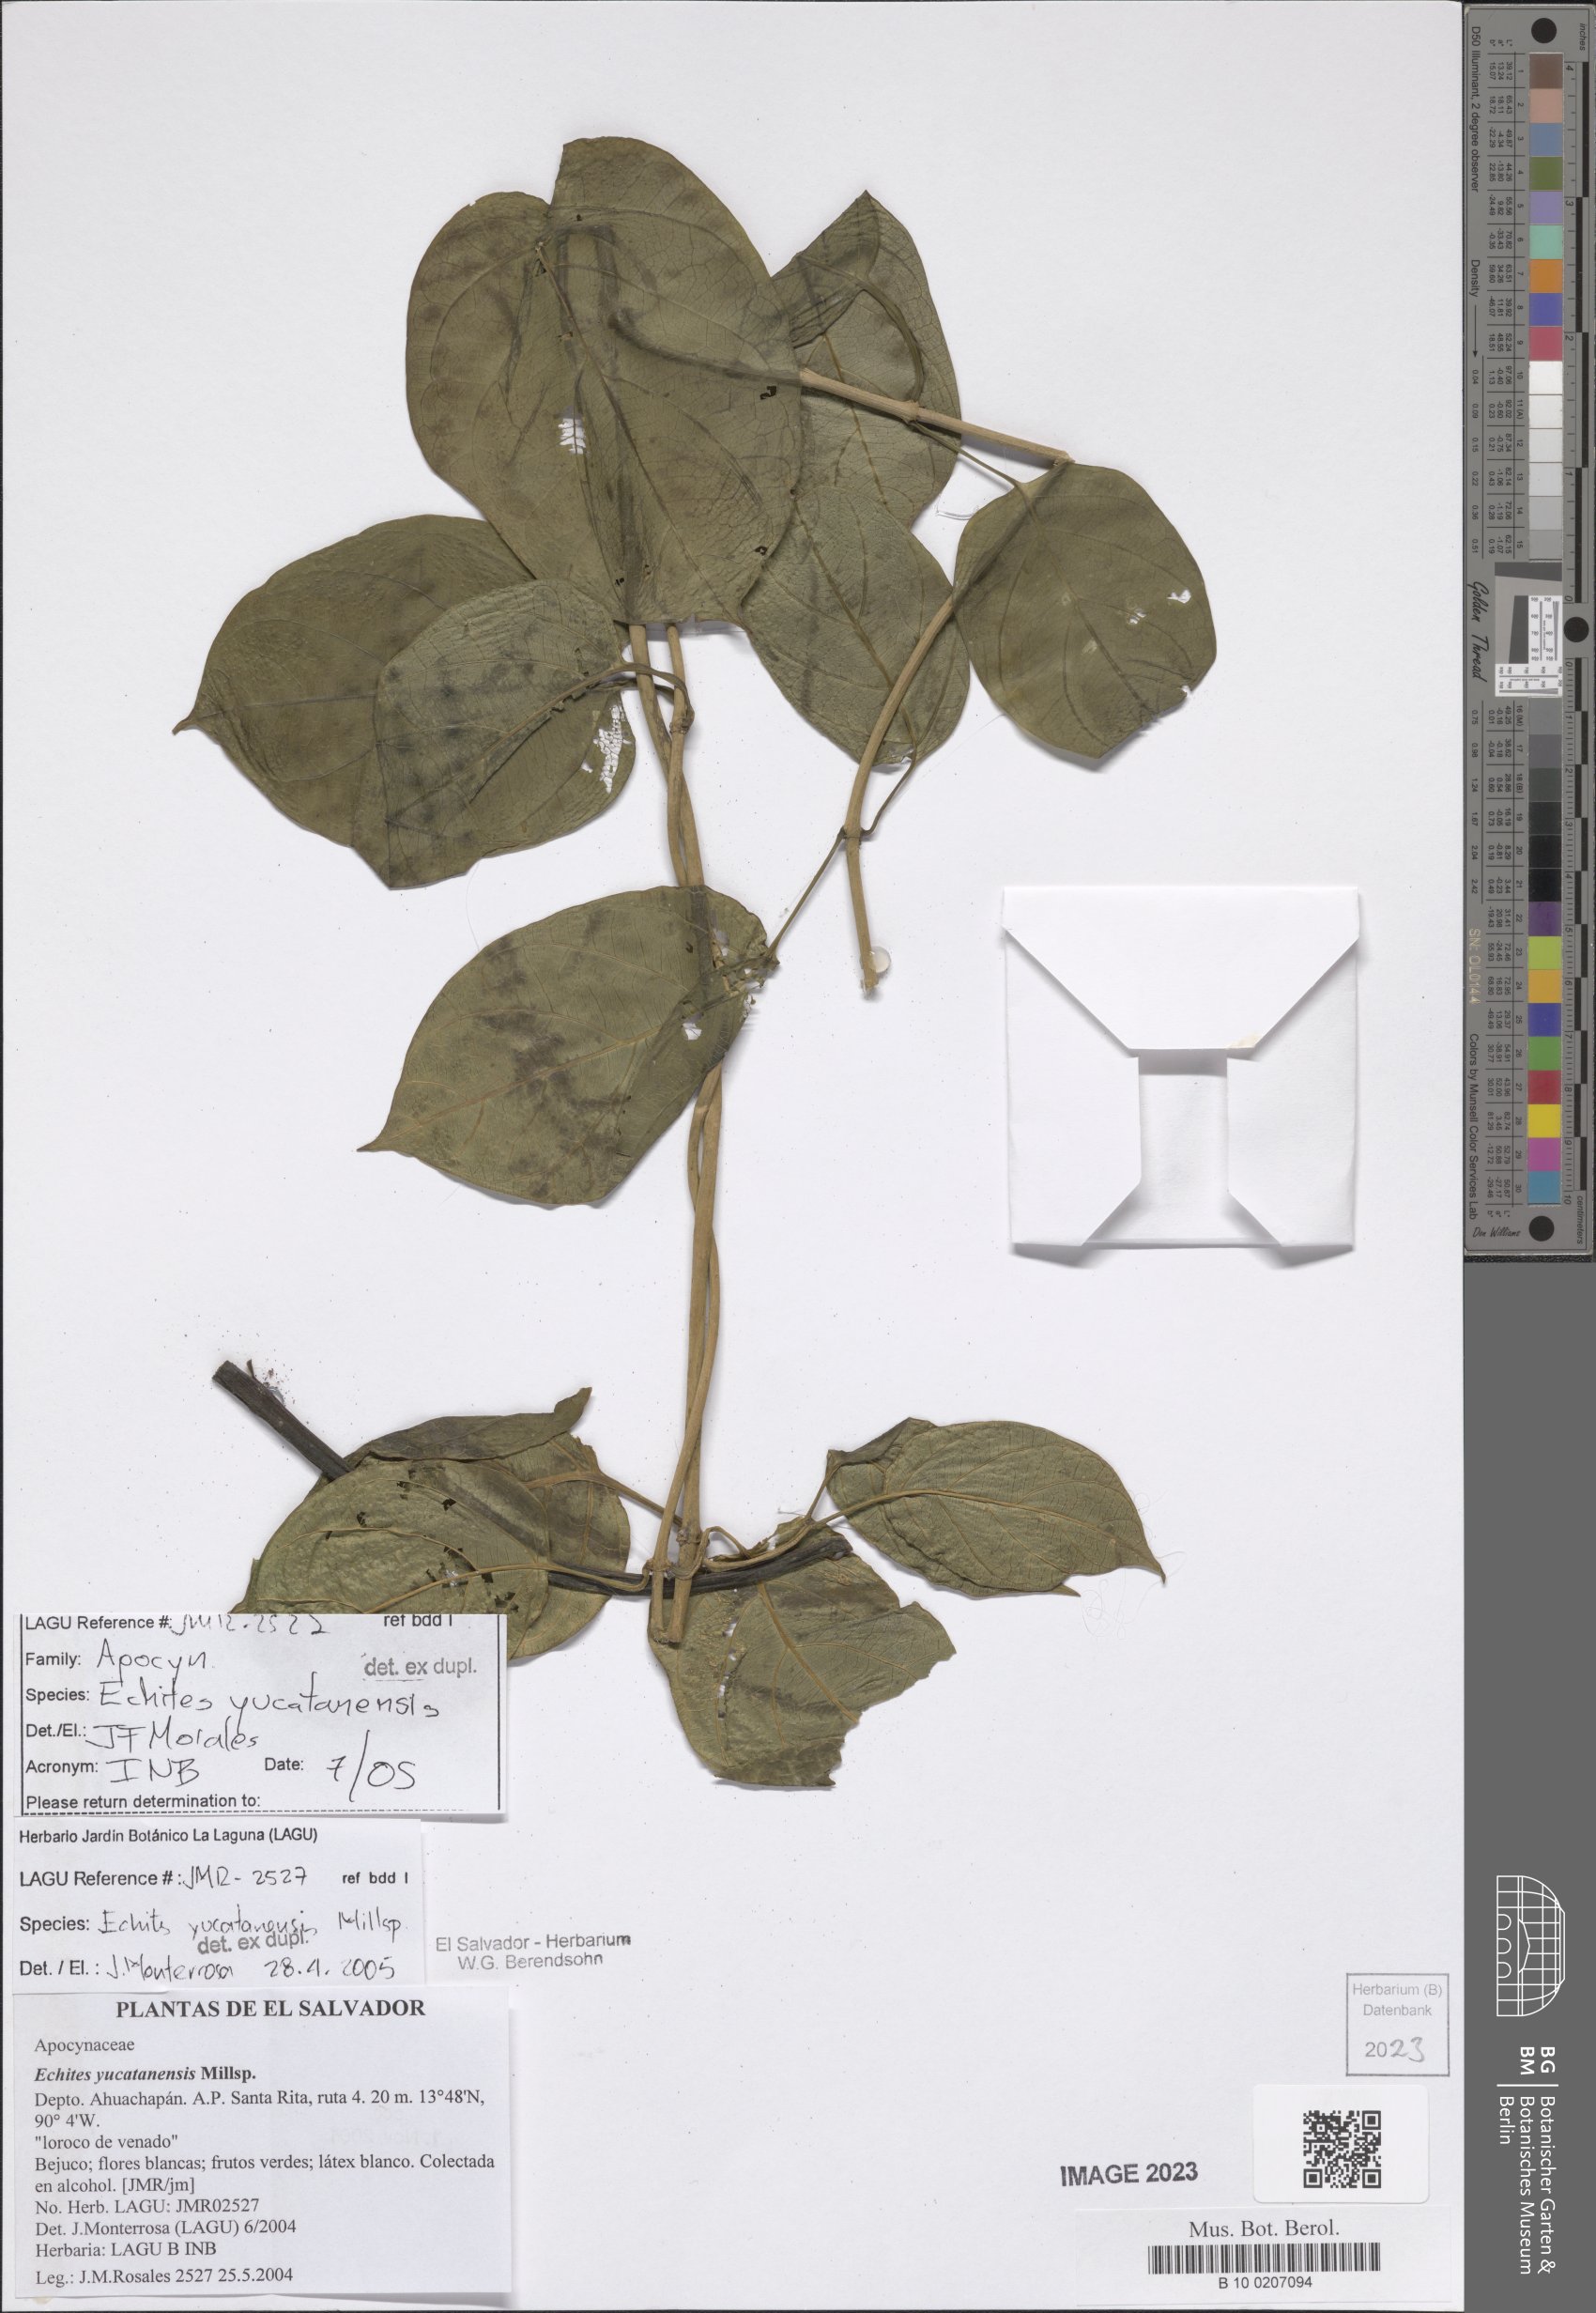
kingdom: Plantae
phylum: Tracheophyta
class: Magnoliopsida
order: Gentianales
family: Apocynaceae
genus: Echites
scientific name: Echites yucatanensis
